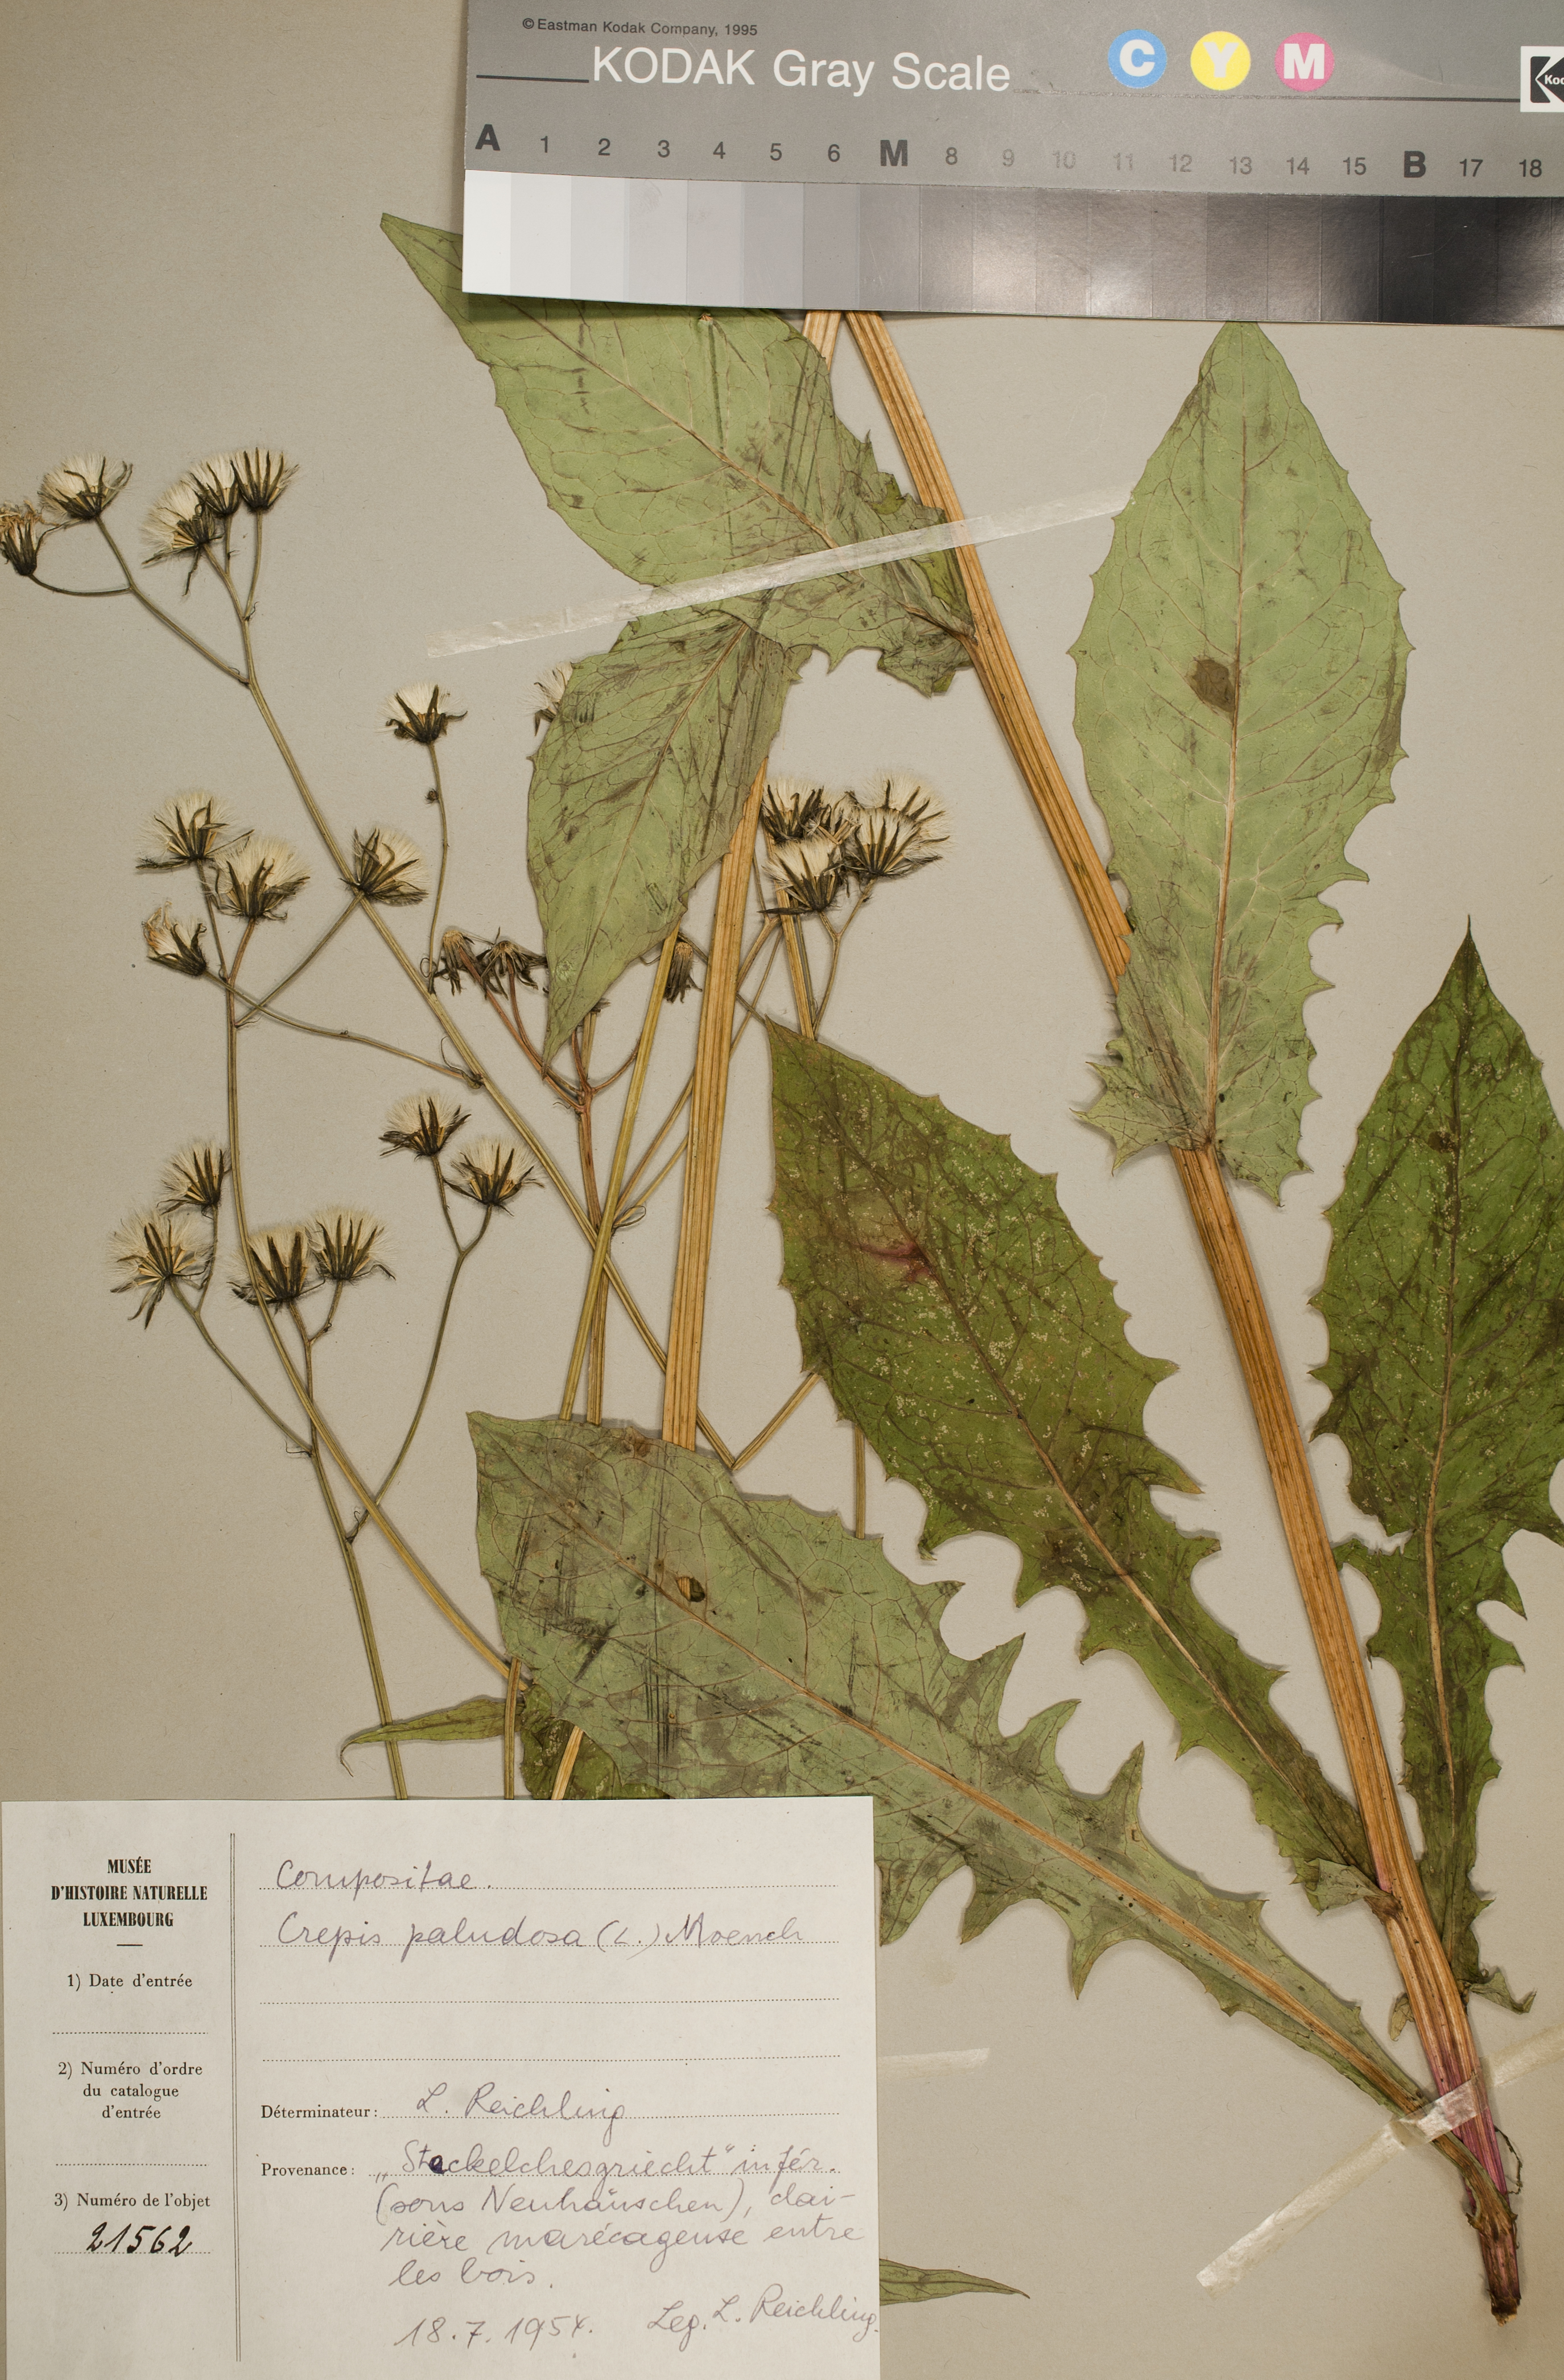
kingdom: Plantae
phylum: Tracheophyta
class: Magnoliopsida
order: Asterales
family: Asteraceae
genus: Crepis
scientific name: Crepis paludosa
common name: Marsh hawk's-beard
